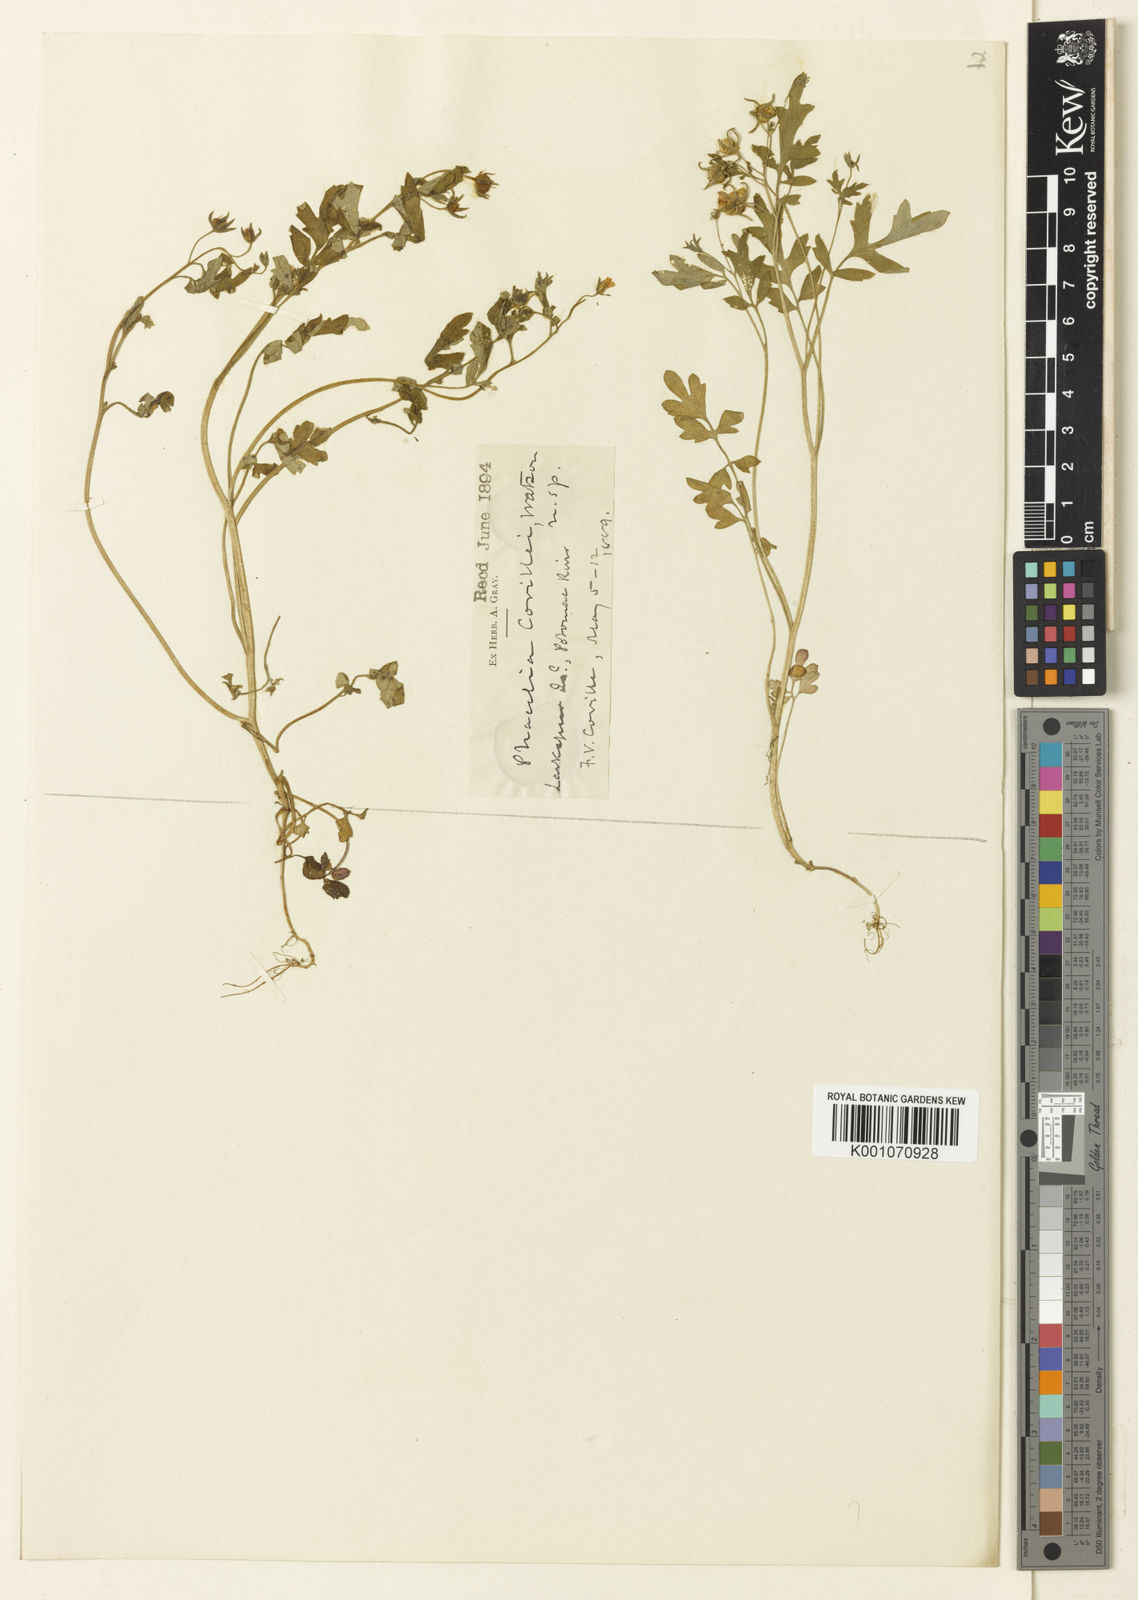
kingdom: Plantae
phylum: Tracheophyta
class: Magnoliopsida
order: Boraginales
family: Hydrophyllaceae
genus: Phacelia
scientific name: Phacelia ranunculacea
